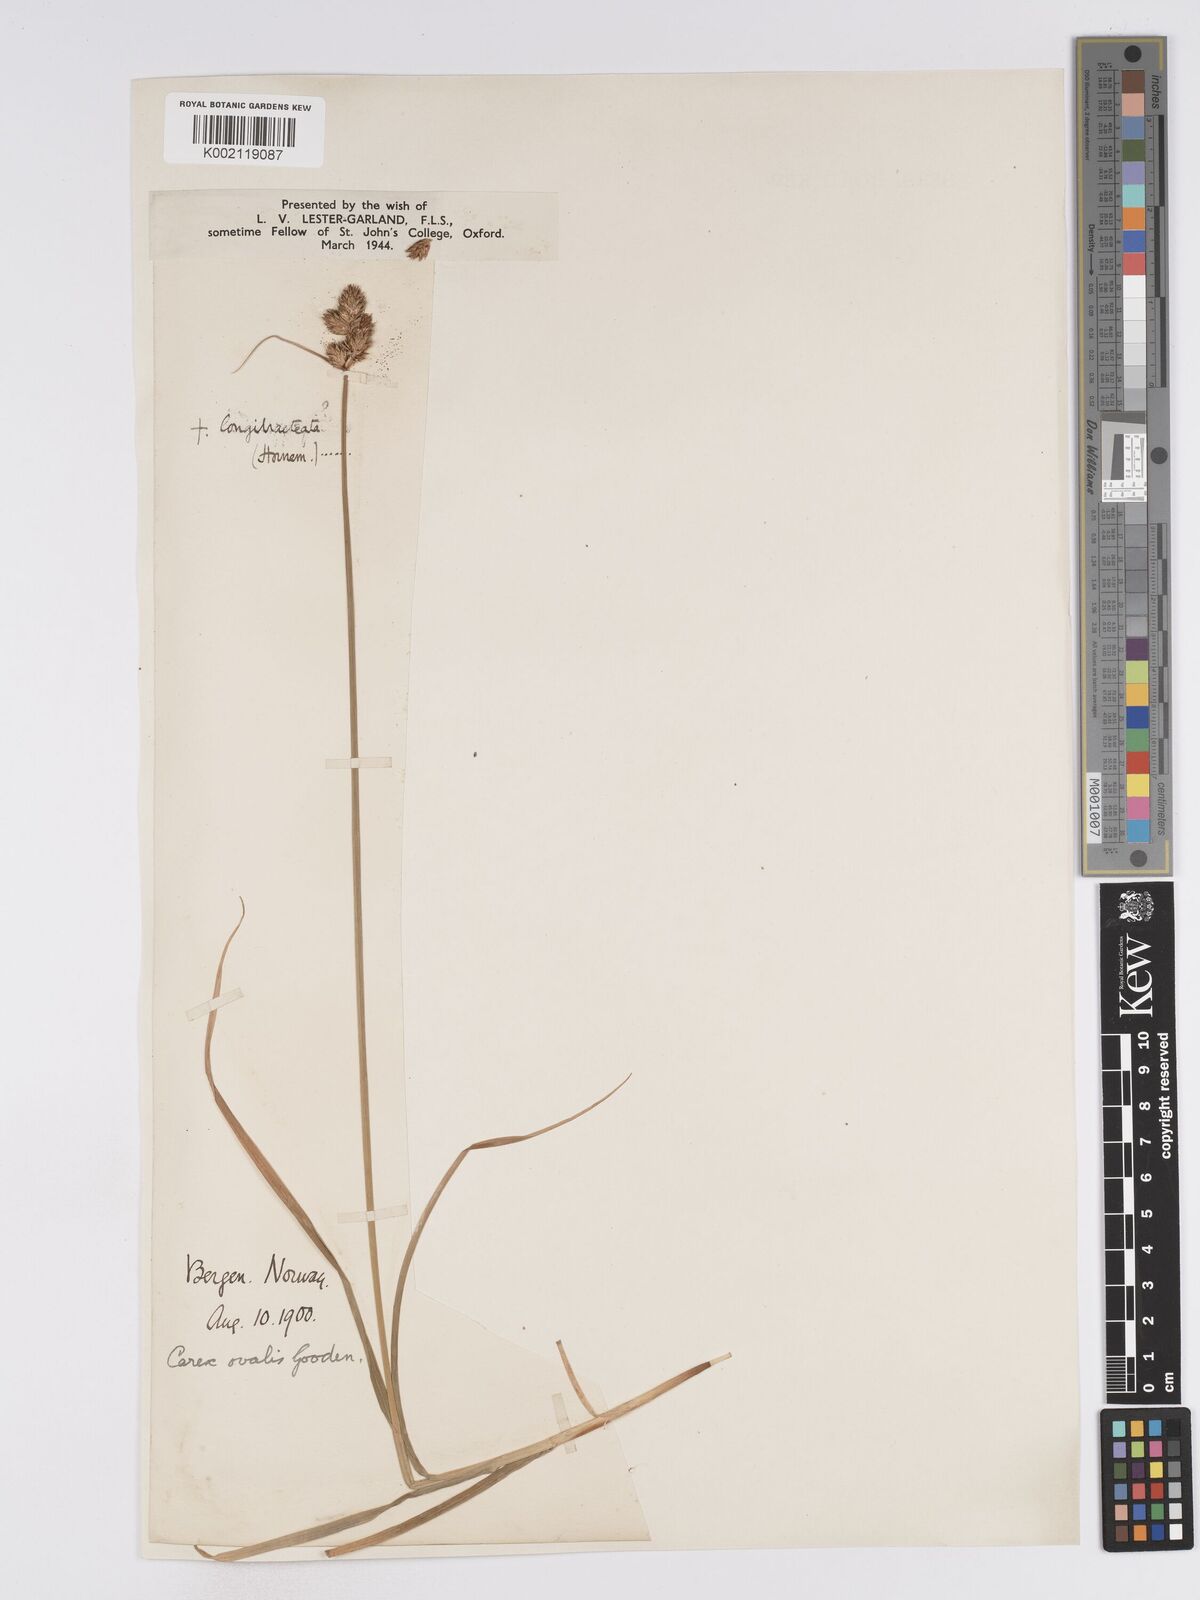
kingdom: Plantae
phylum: Tracheophyta
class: Liliopsida
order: Poales
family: Cyperaceae
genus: Carex
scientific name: Carex leporina
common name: Oval sedge
